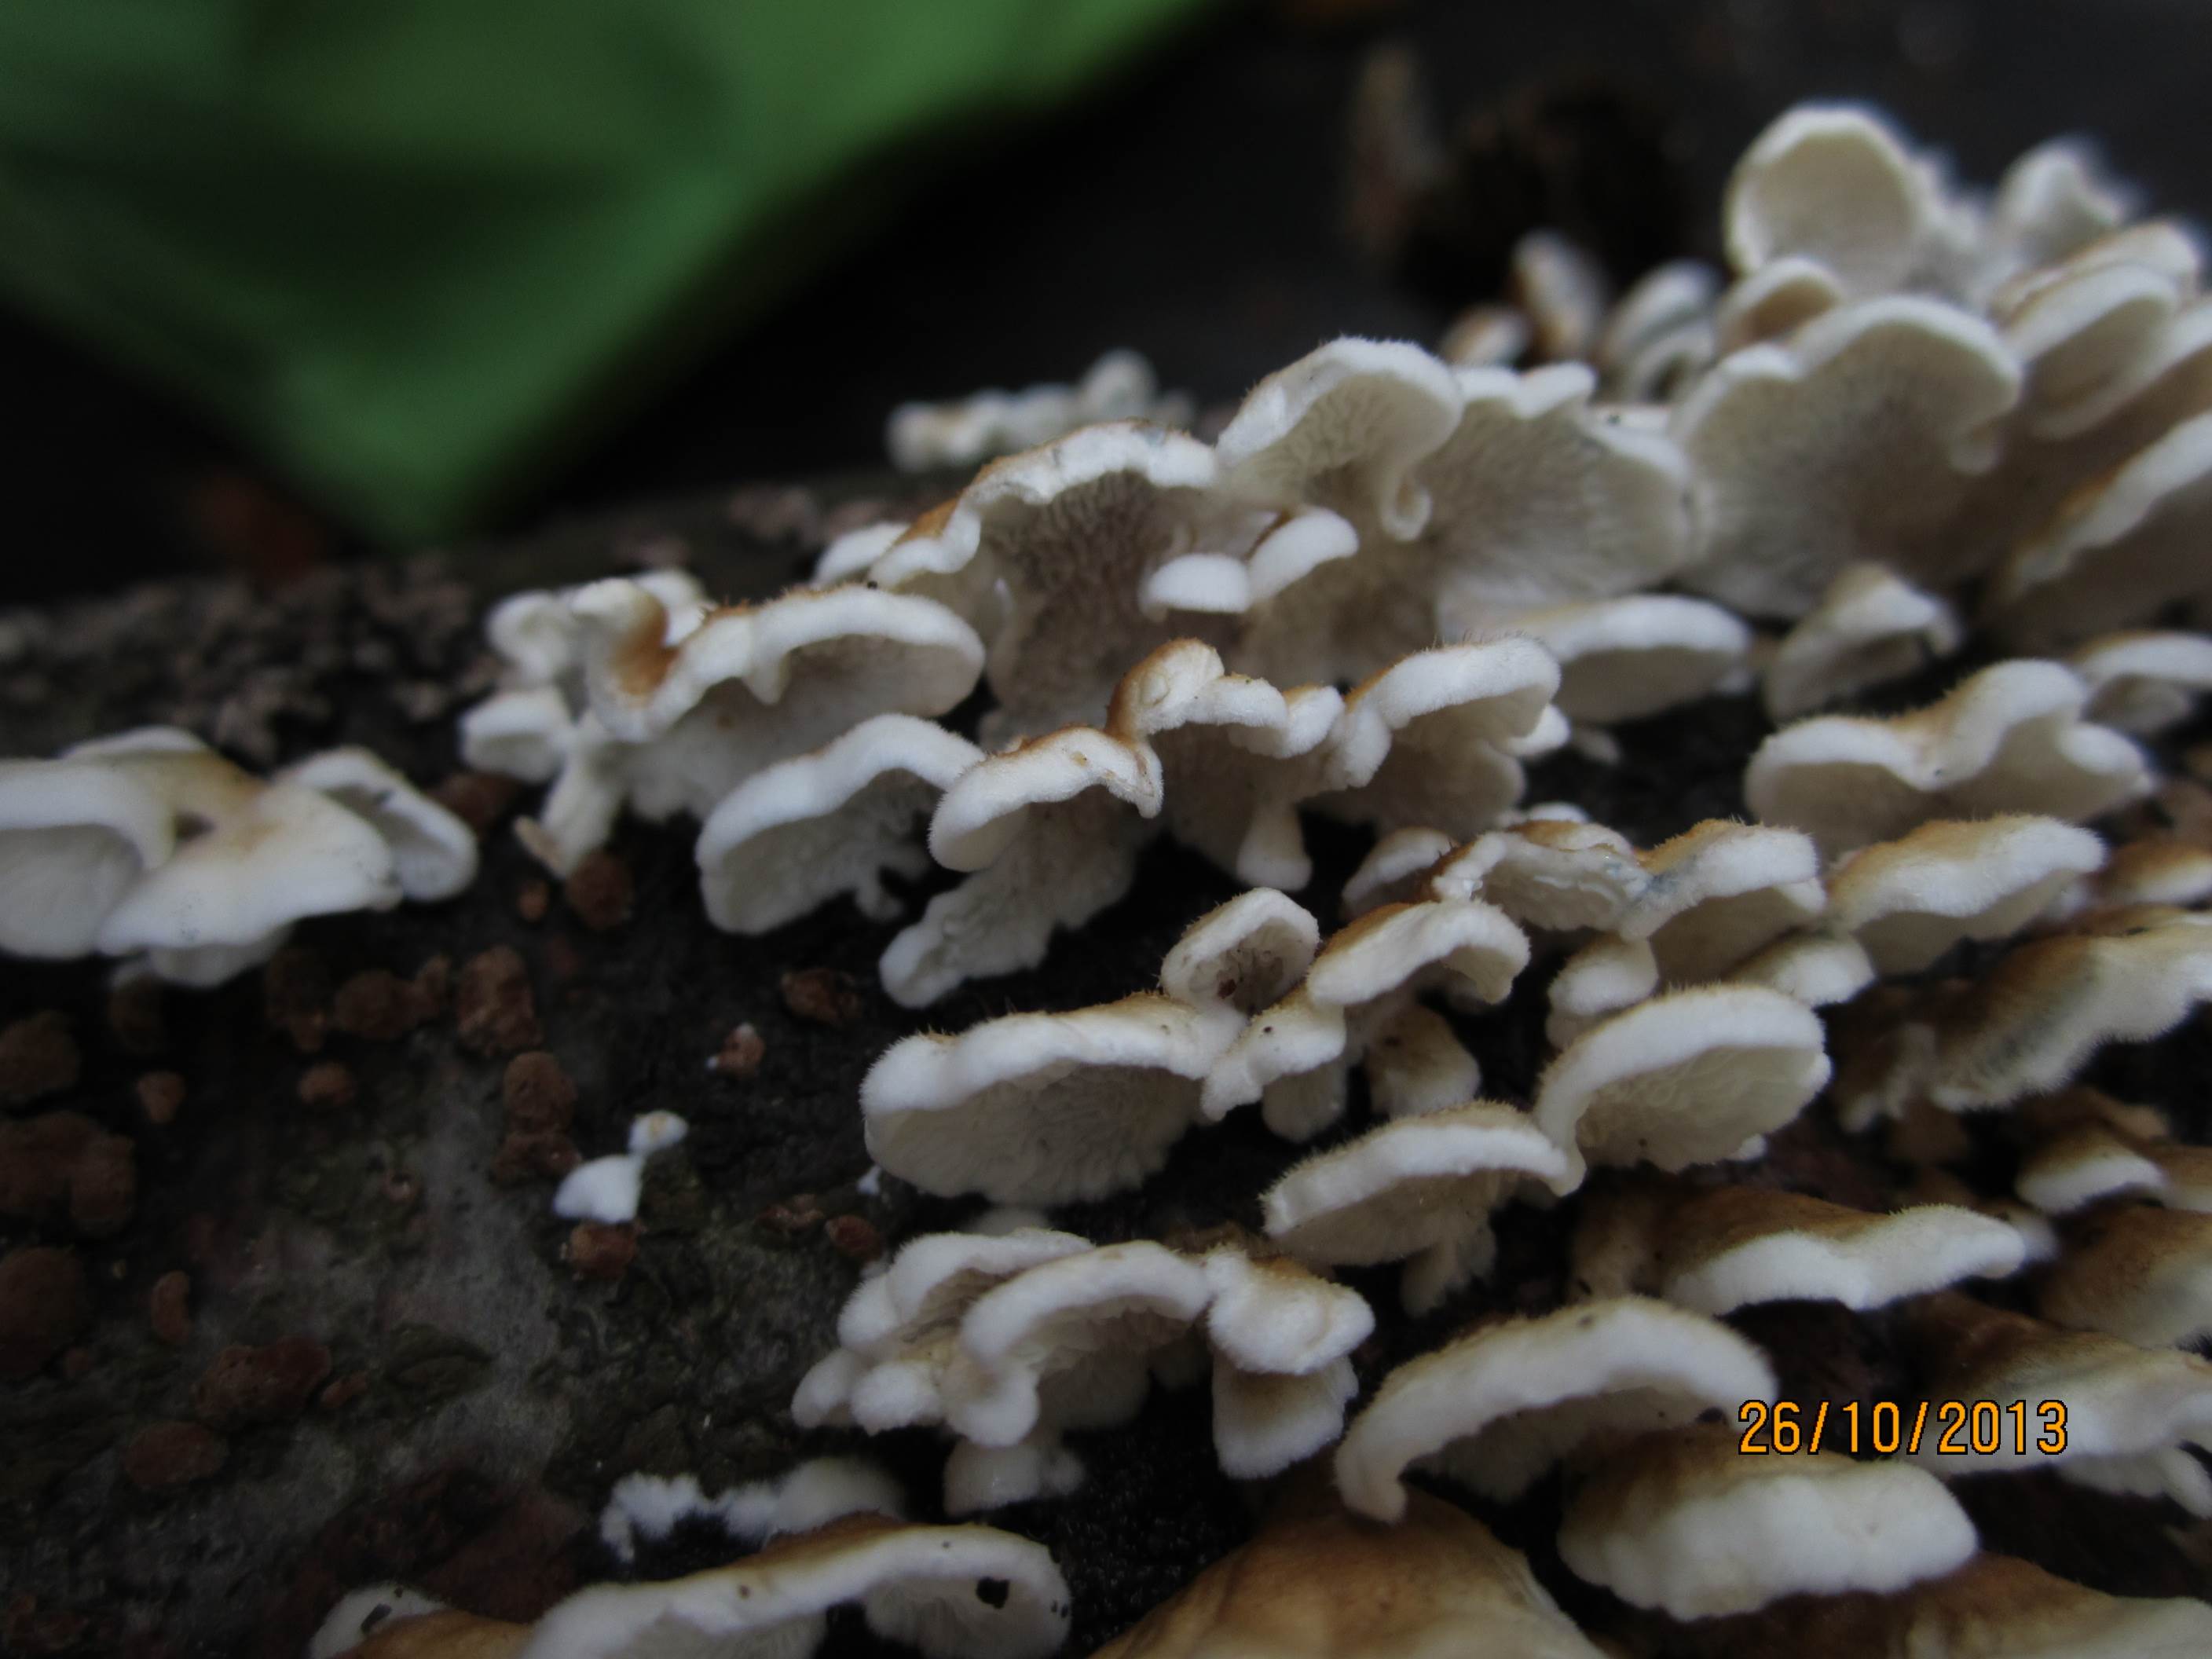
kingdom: Fungi
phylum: Basidiomycota
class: Agaricomycetes
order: Amylocorticiales
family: Amylocorticiaceae
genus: Plicaturopsis
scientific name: Plicaturopsis crispa
